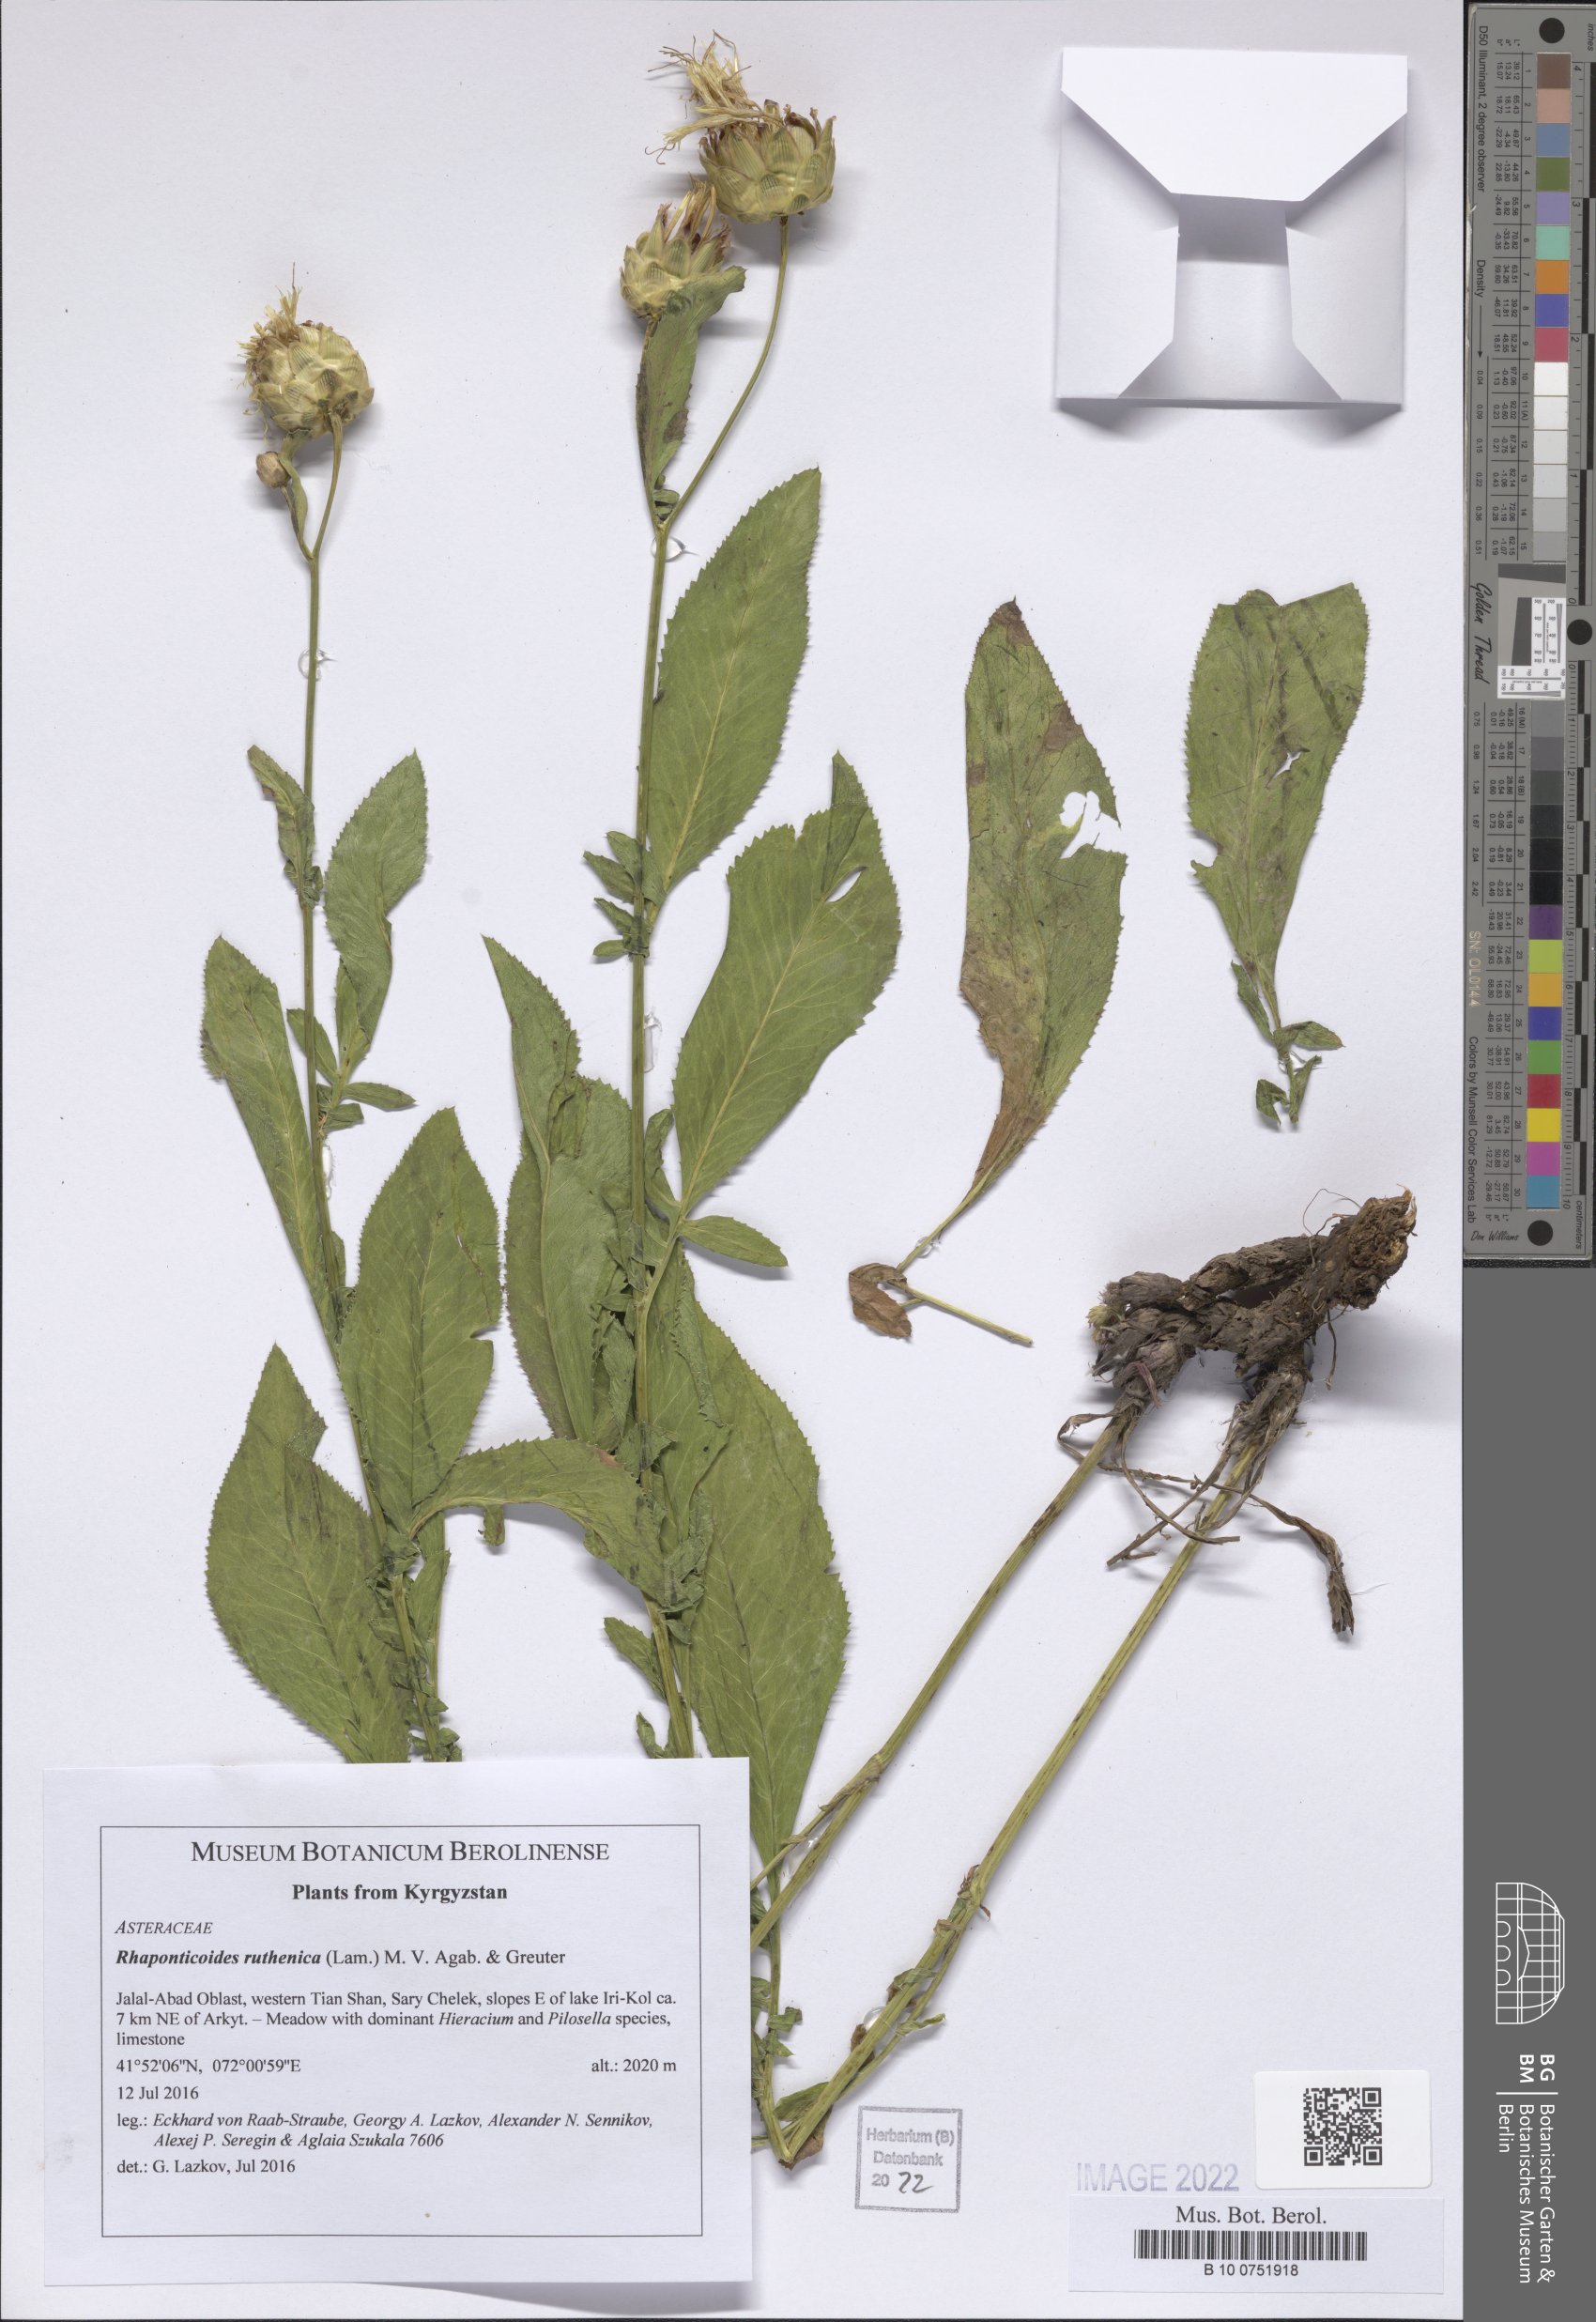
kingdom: Plantae
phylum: Tracheophyta
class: Magnoliopsida
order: Asterales
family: Asteraceae
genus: Rhaponticoides
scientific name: Rhaponticoides ruthenica
